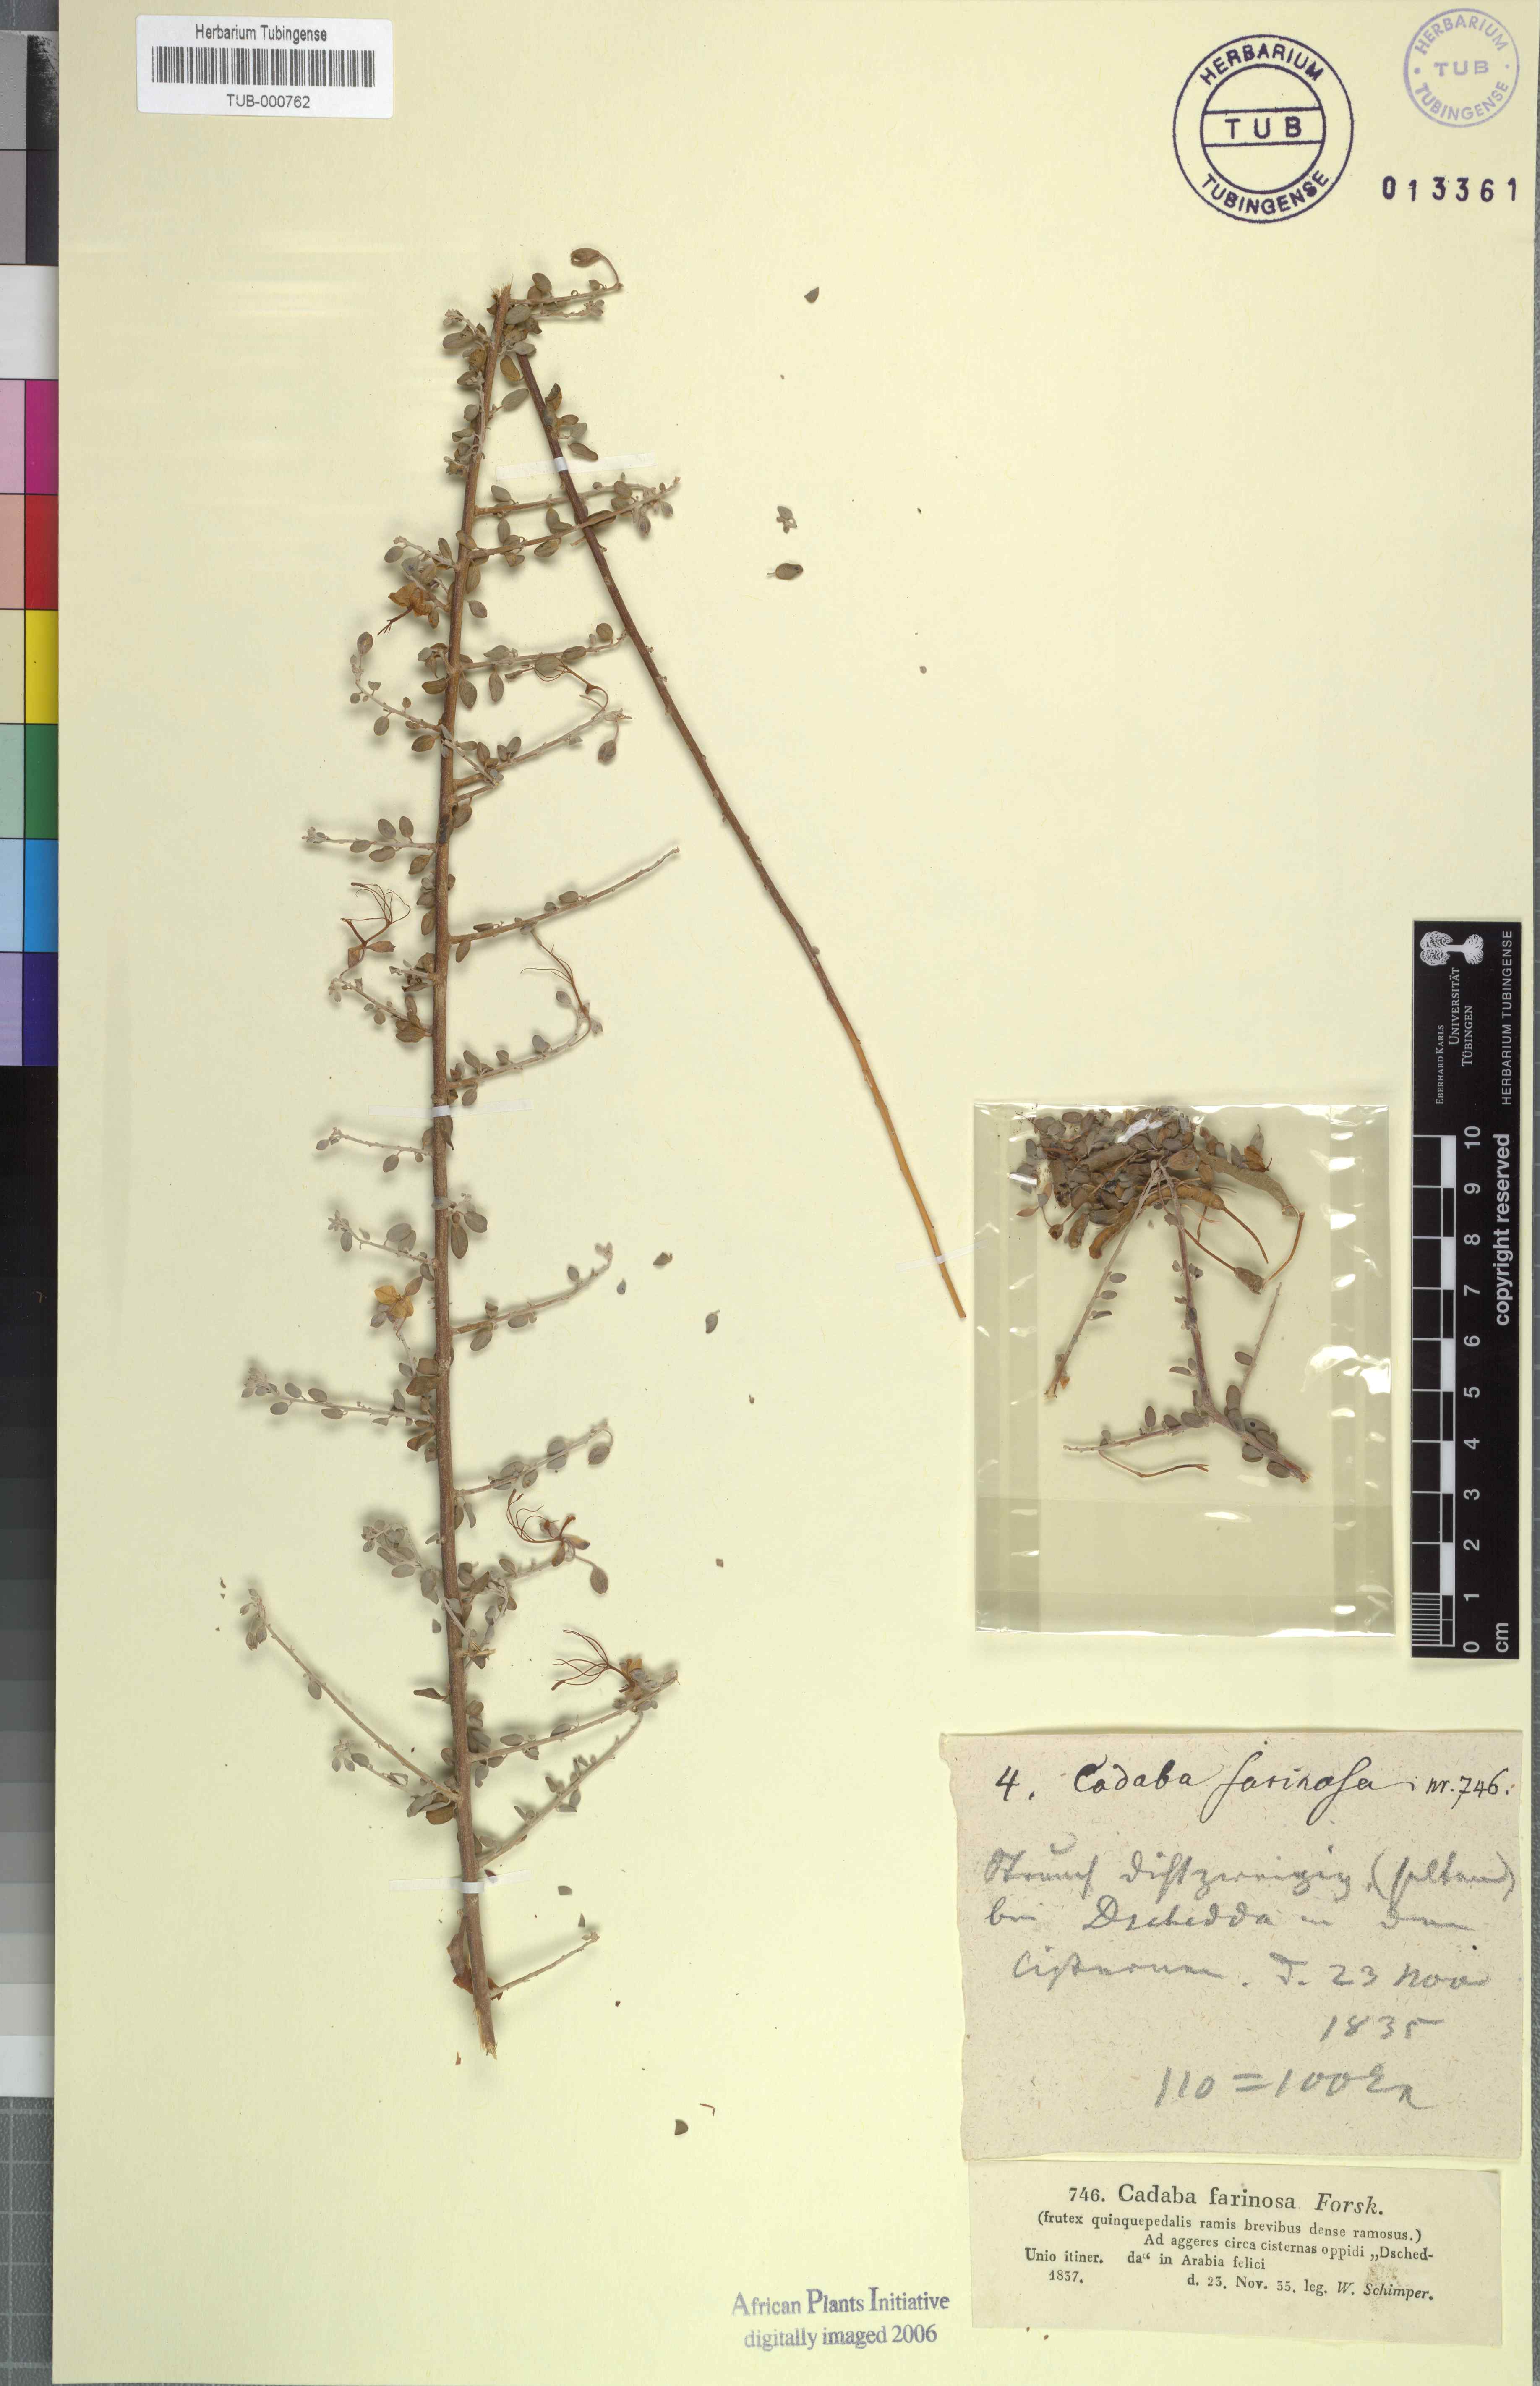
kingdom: Plantae
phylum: Tracheophyta
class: Magnoliopsida
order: Brassicales
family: Capparaceae
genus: Cadaba
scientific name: Cadaba farinosa
